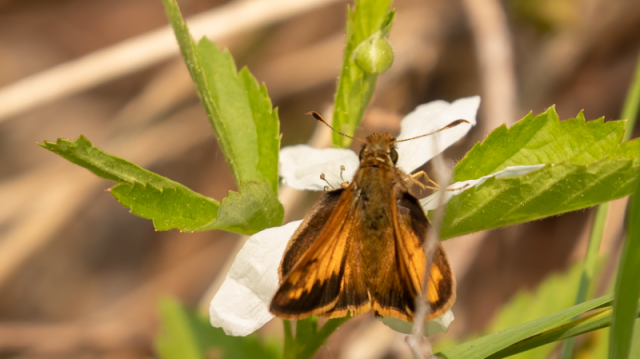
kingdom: Animalia
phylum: Arthropoda
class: Insecta
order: Lepidoptera
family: Hesperiidae
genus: Lon
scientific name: Lon hobomok
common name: Hobomok Skipper
